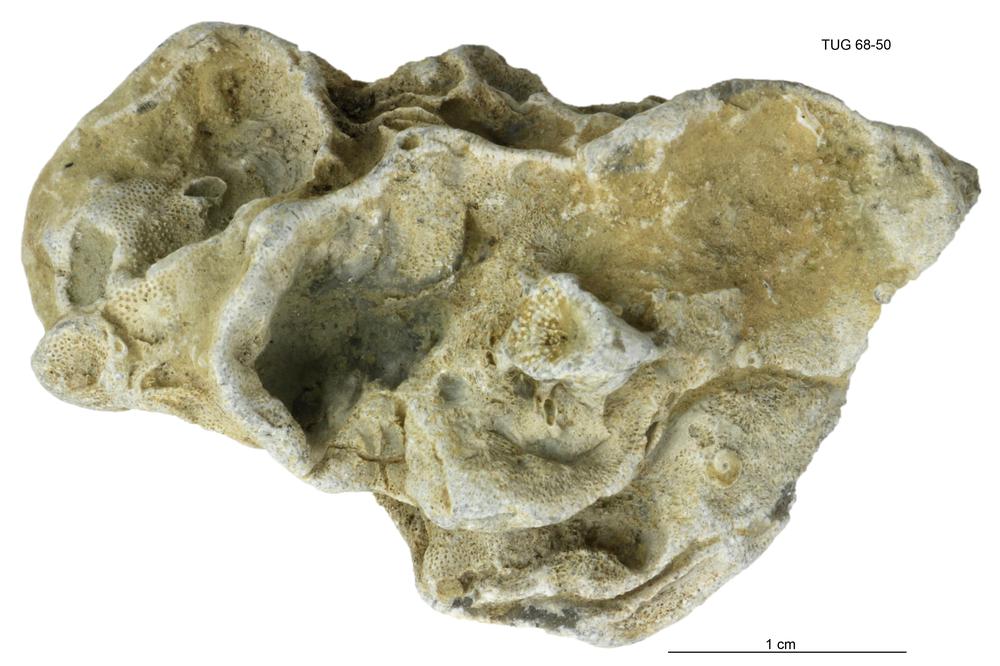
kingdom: Animalia
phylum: Bryozoa
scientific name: Bryozoa
